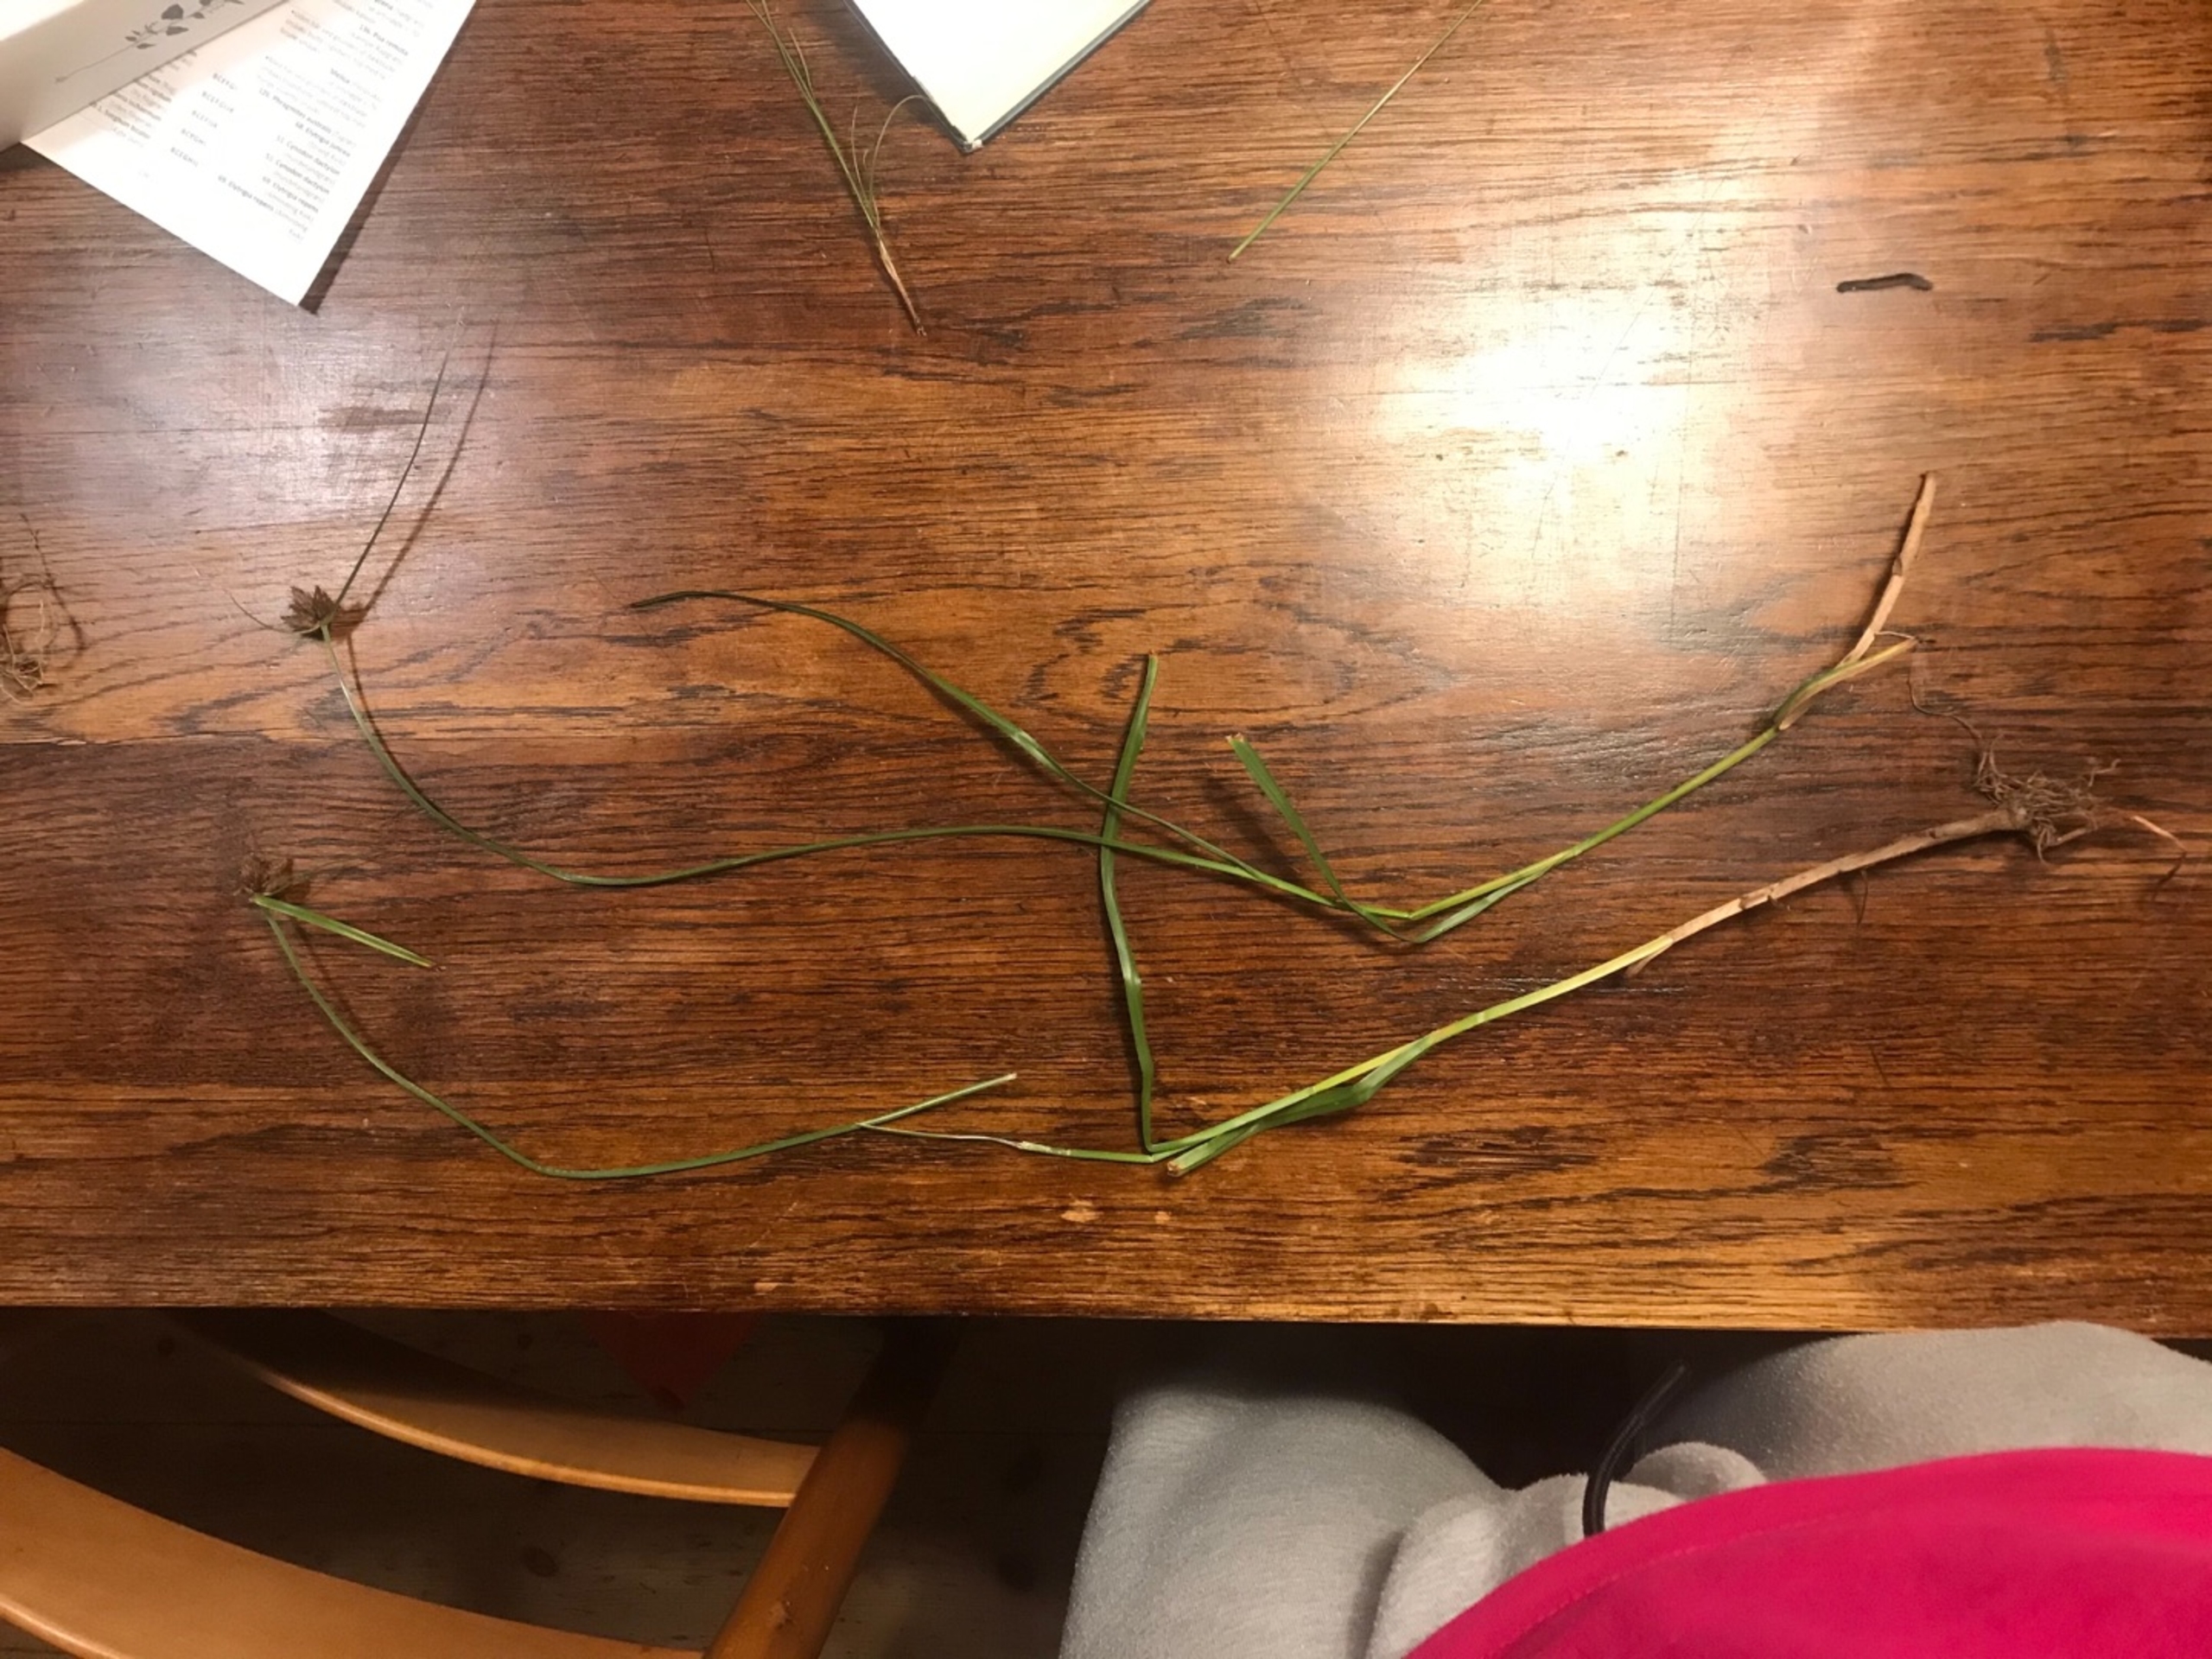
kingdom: Plantae
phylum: Tracheophyta
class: Liliopsida
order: Poales
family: Cyperaceae
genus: Bolboschoenus
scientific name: Bolboschoenus maritimus
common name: Strand-kogleaks
